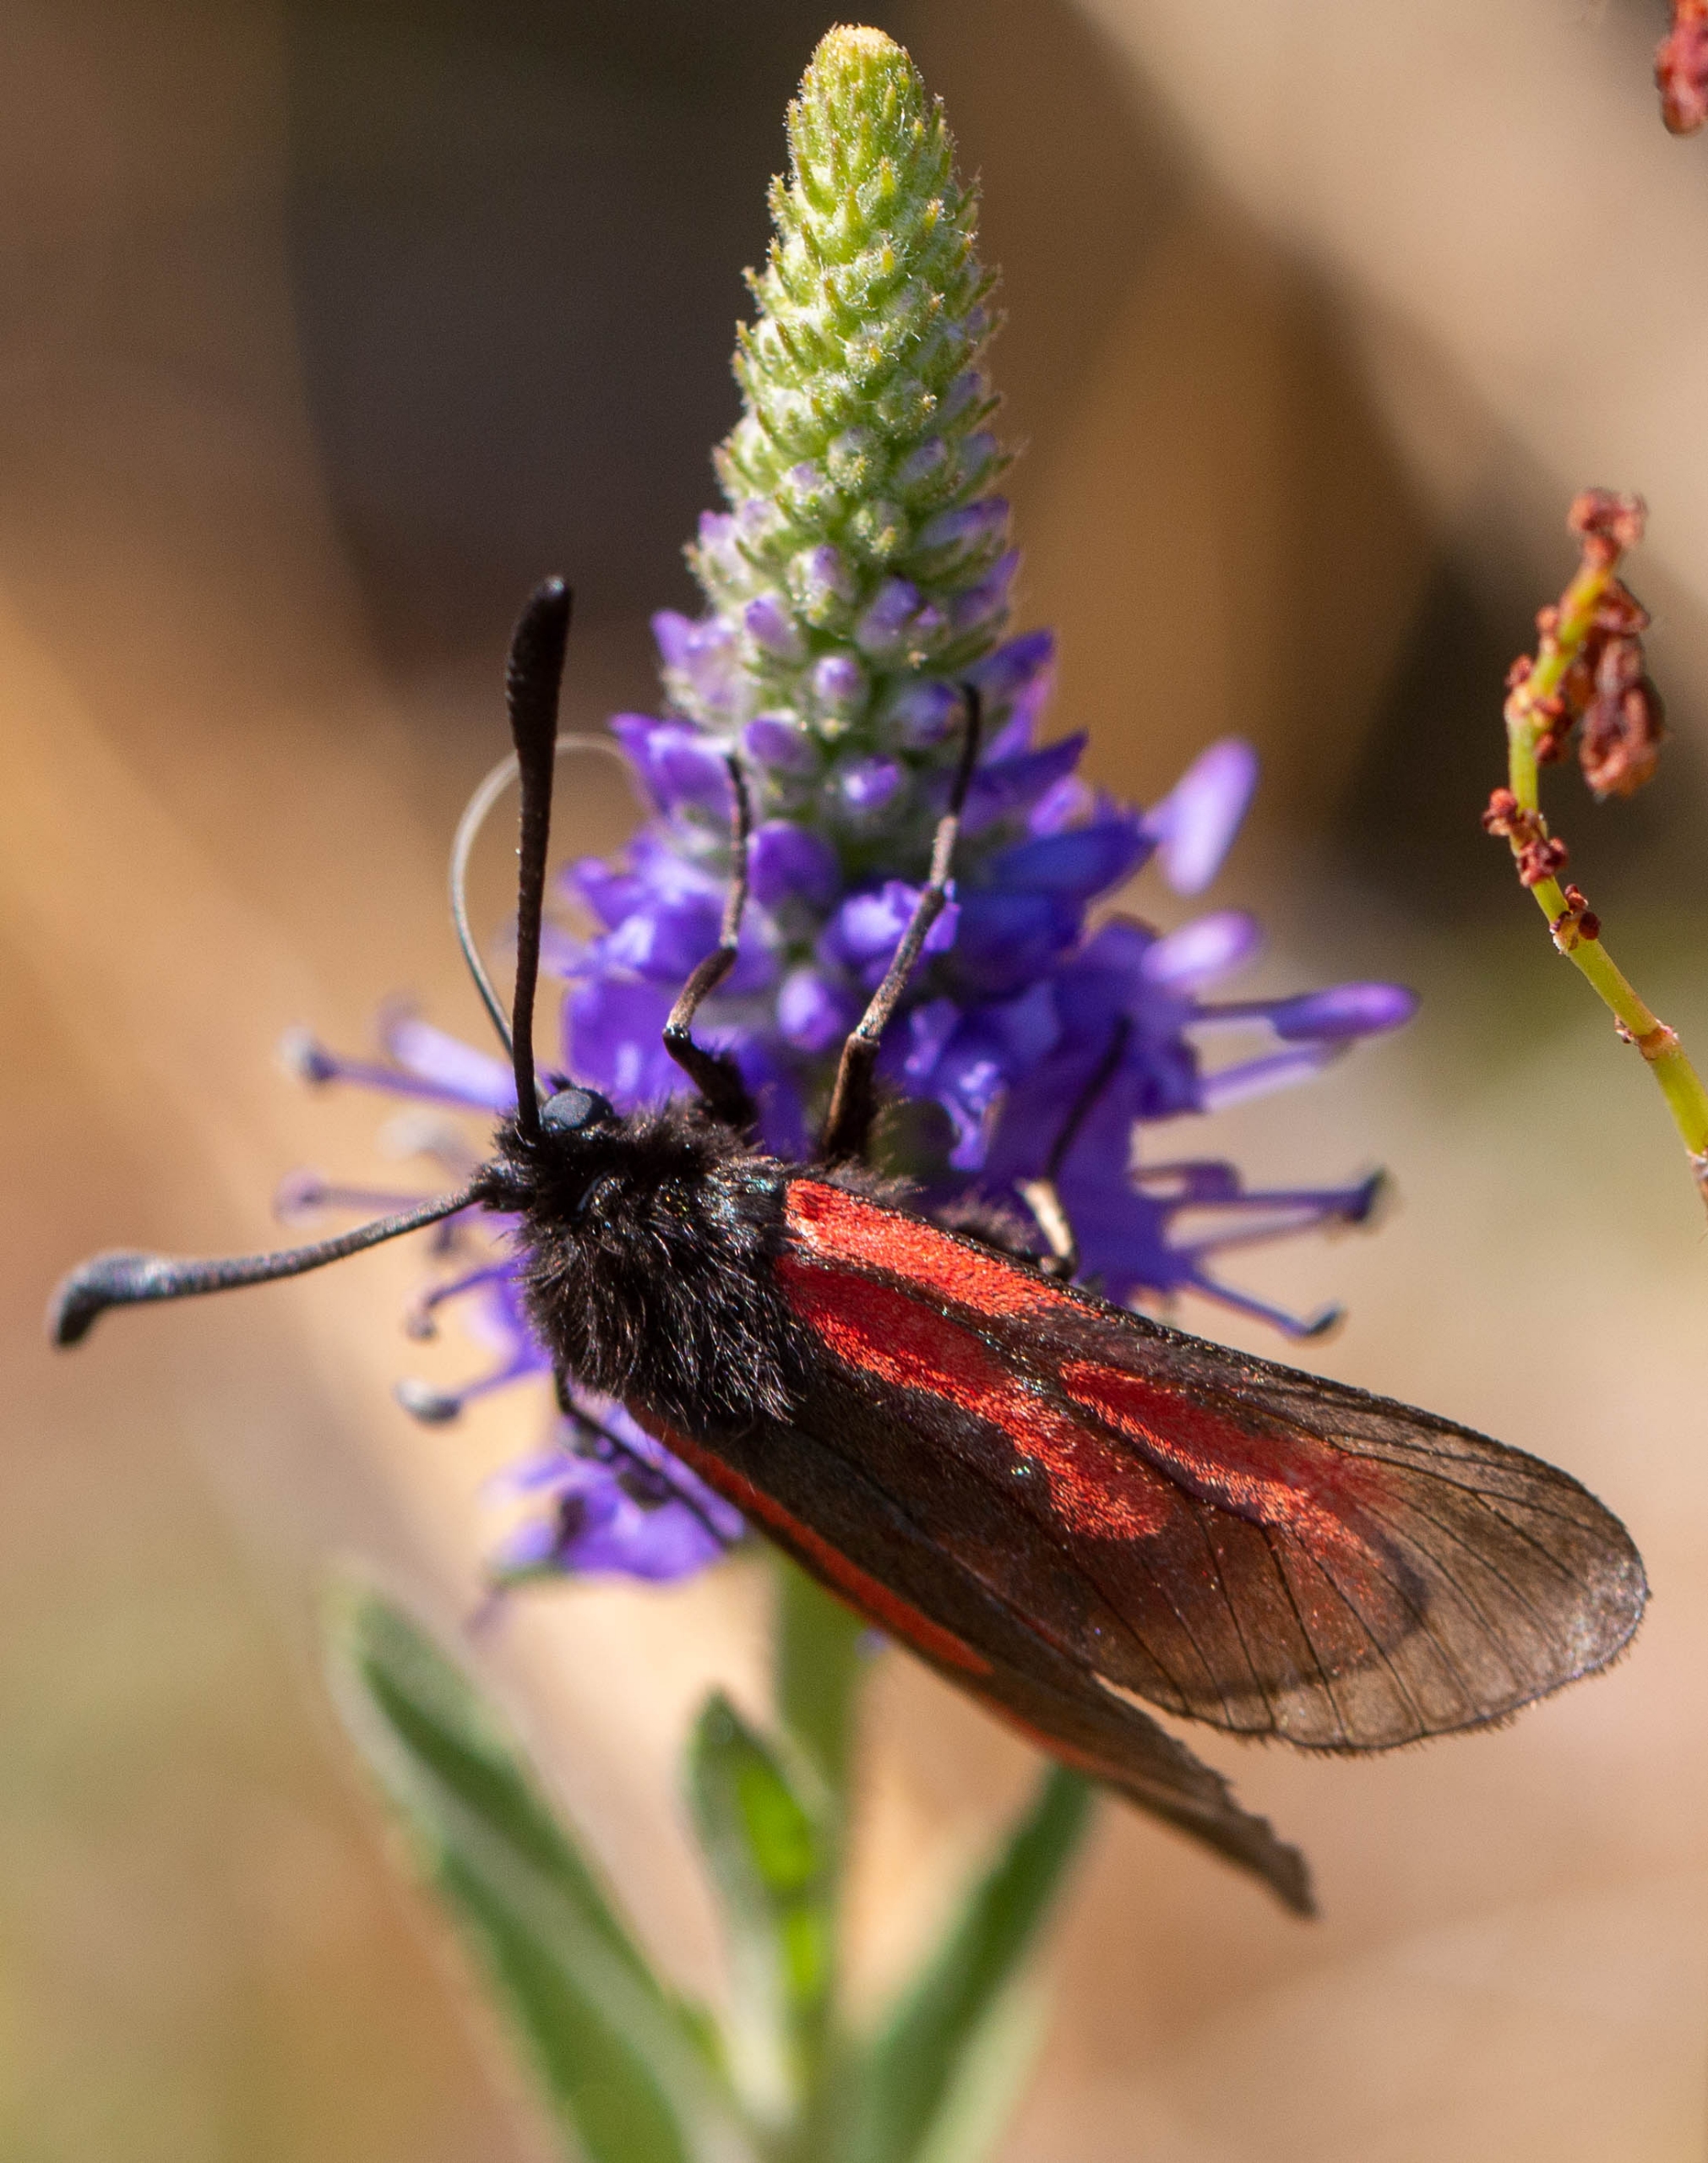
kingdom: Animalia
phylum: Arthropoda
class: Insecta
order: Lepidoptera
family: Zygaenidae
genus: Zygaena
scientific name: Zygaena minos
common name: Pimpernelkøllesværmer
